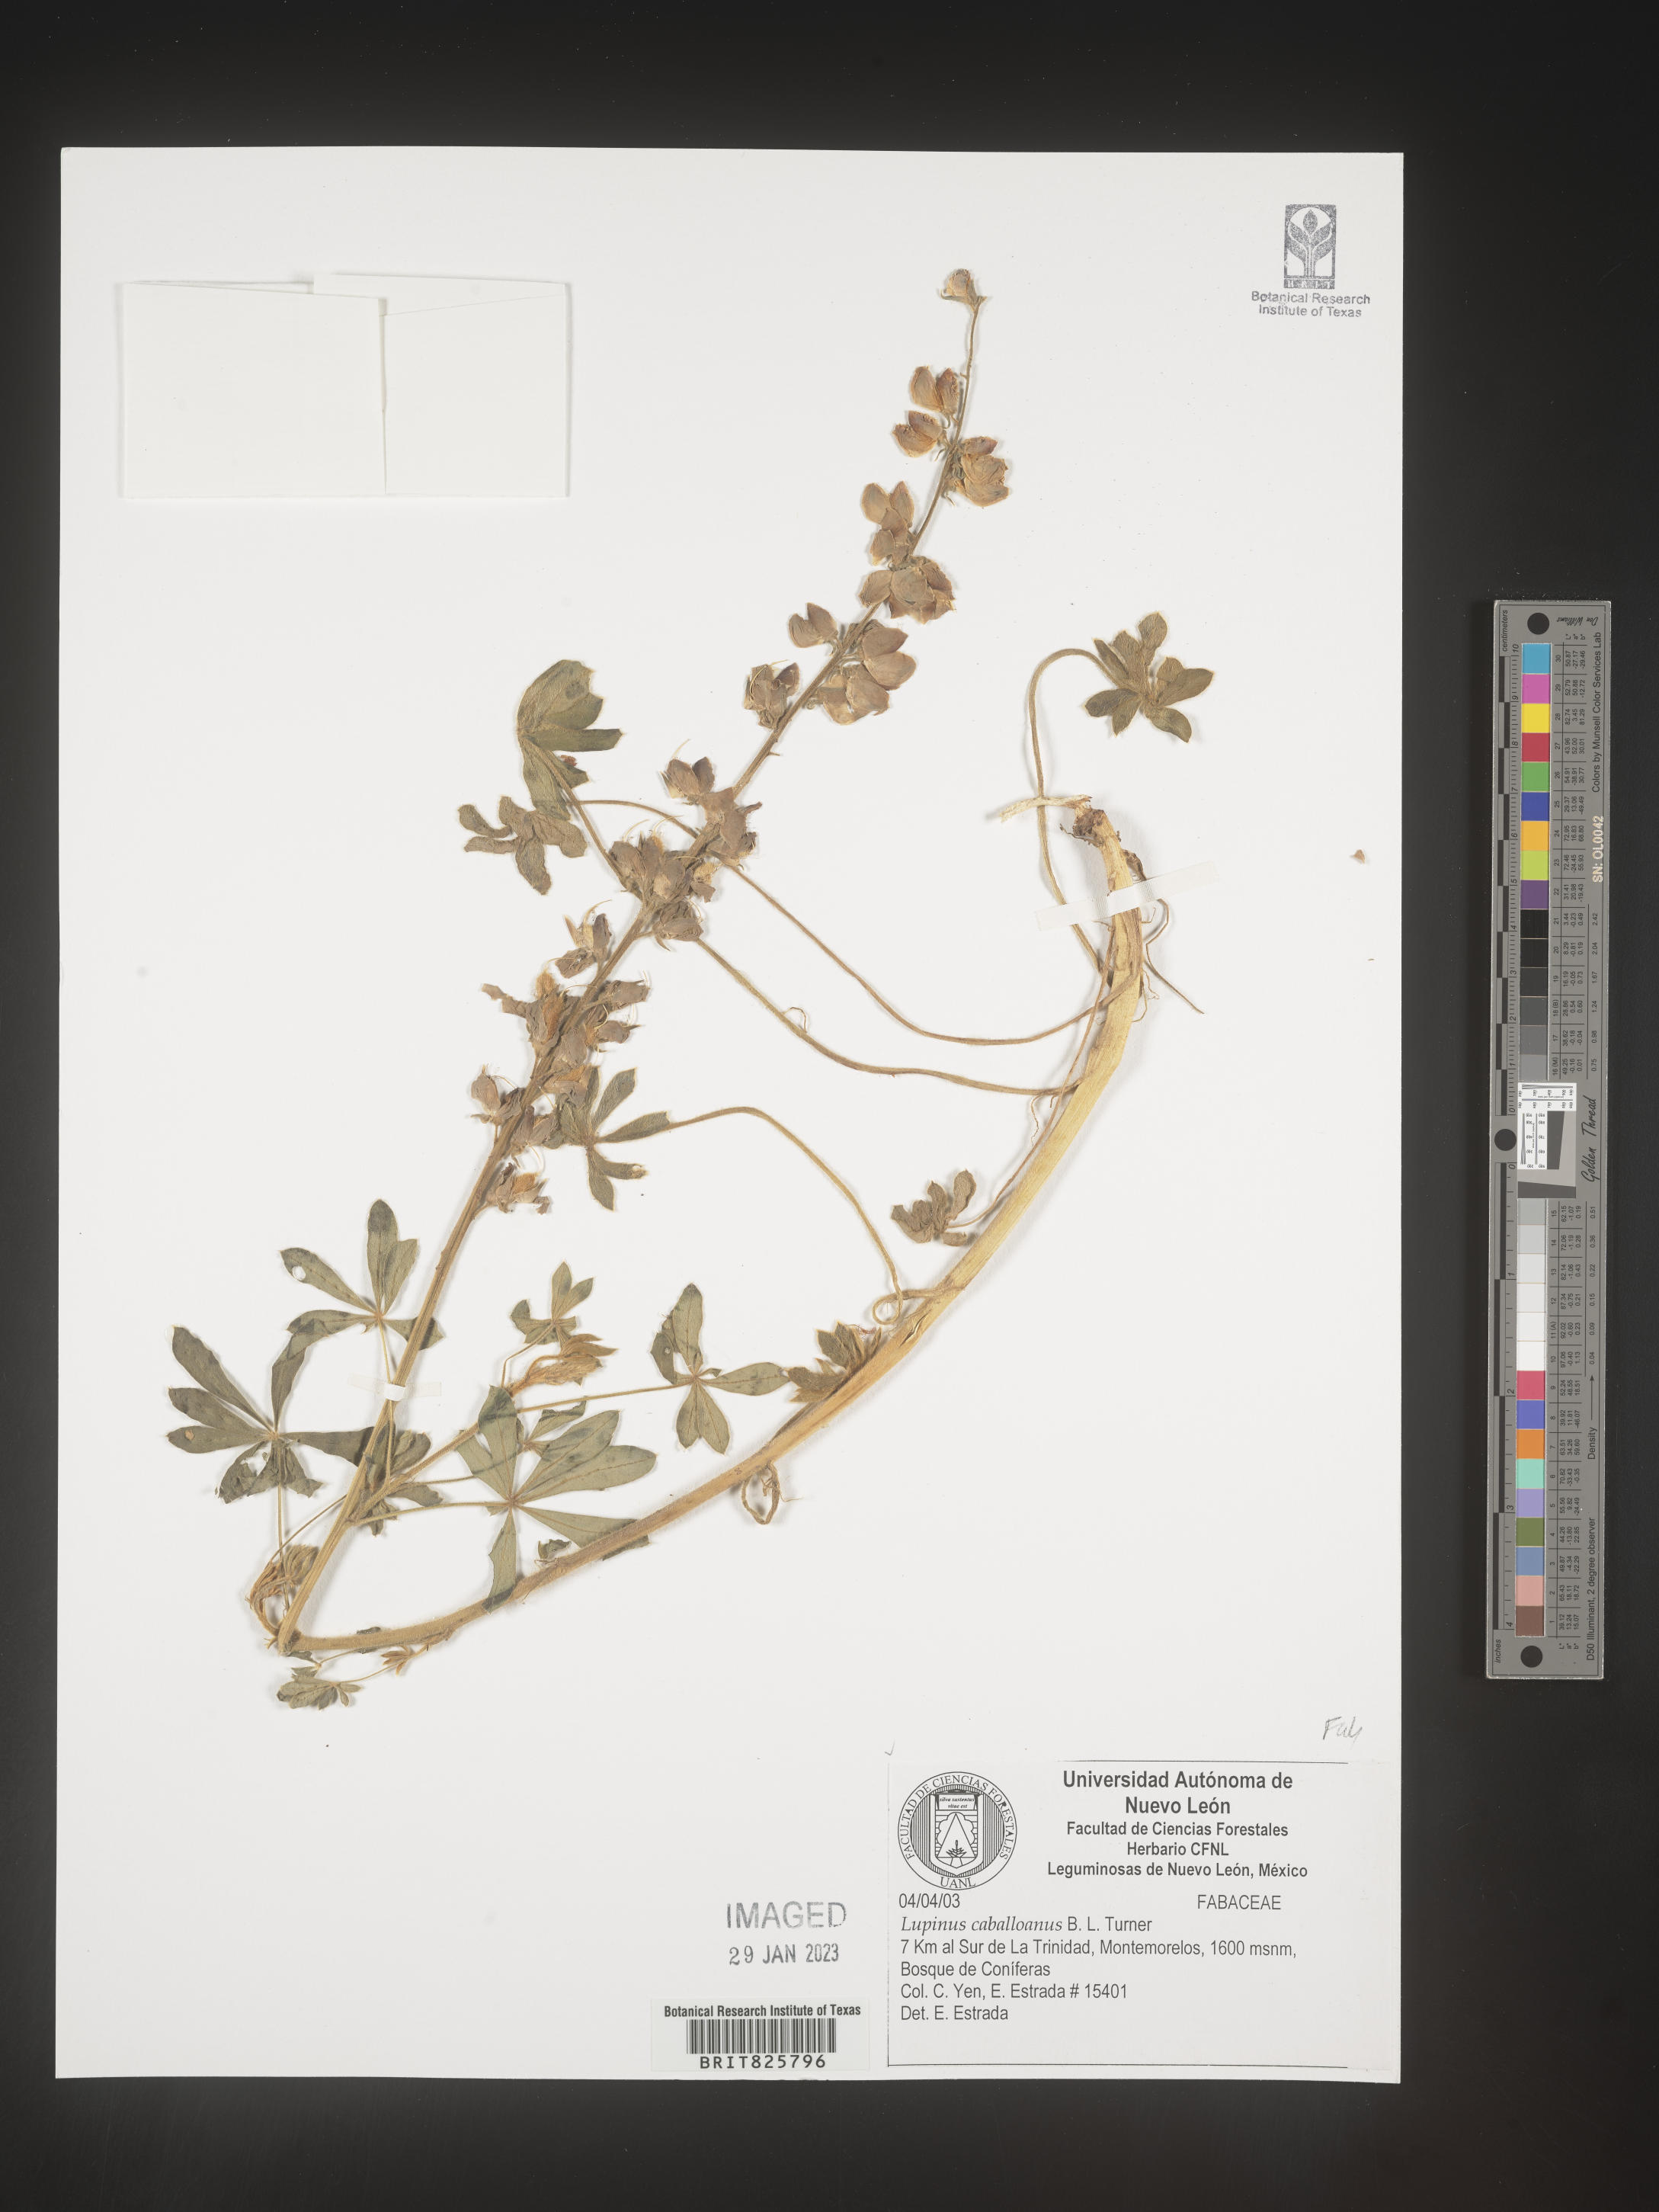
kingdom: Plantae
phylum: Tracheophyta
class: Magnoliopsida
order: Fabales
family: Fabaceae
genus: Lupinus
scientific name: Lupinus
